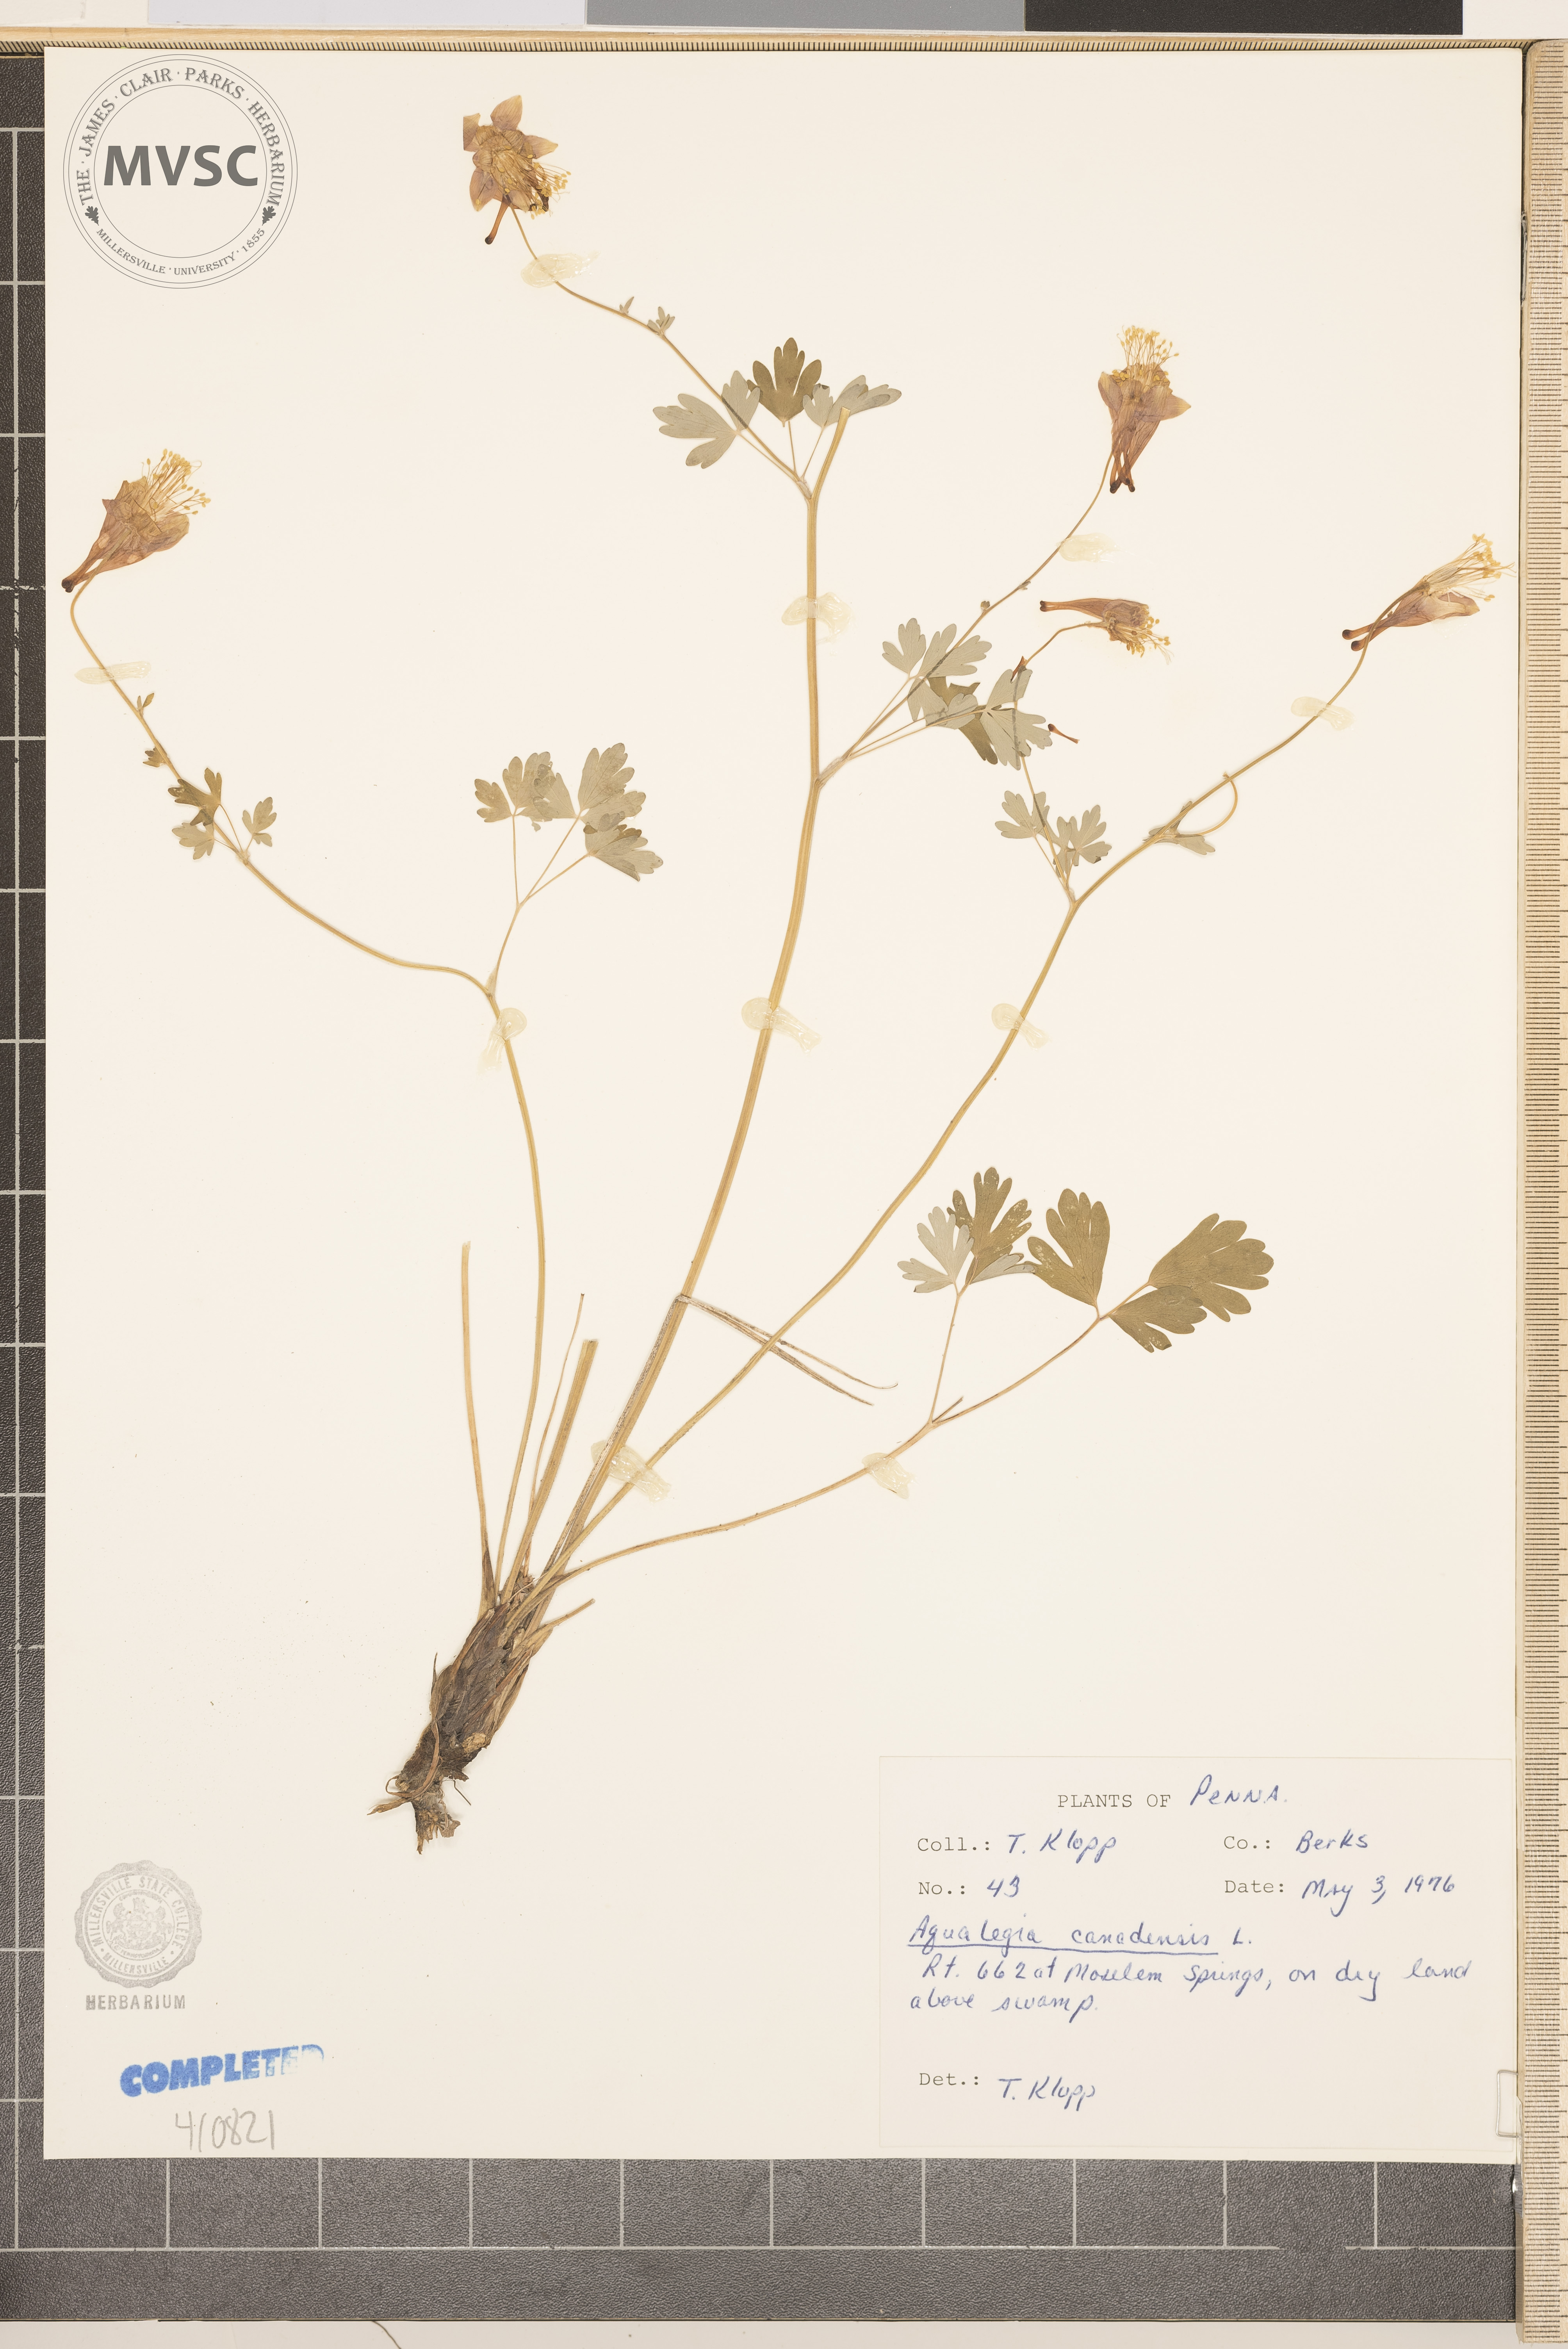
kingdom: Plantae
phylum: Tracheophyta
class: Magnoliopsida
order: Ranunculales
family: Ranunculaceae
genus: Aquilegia
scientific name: Aquilegia canadensis
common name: American columbine
